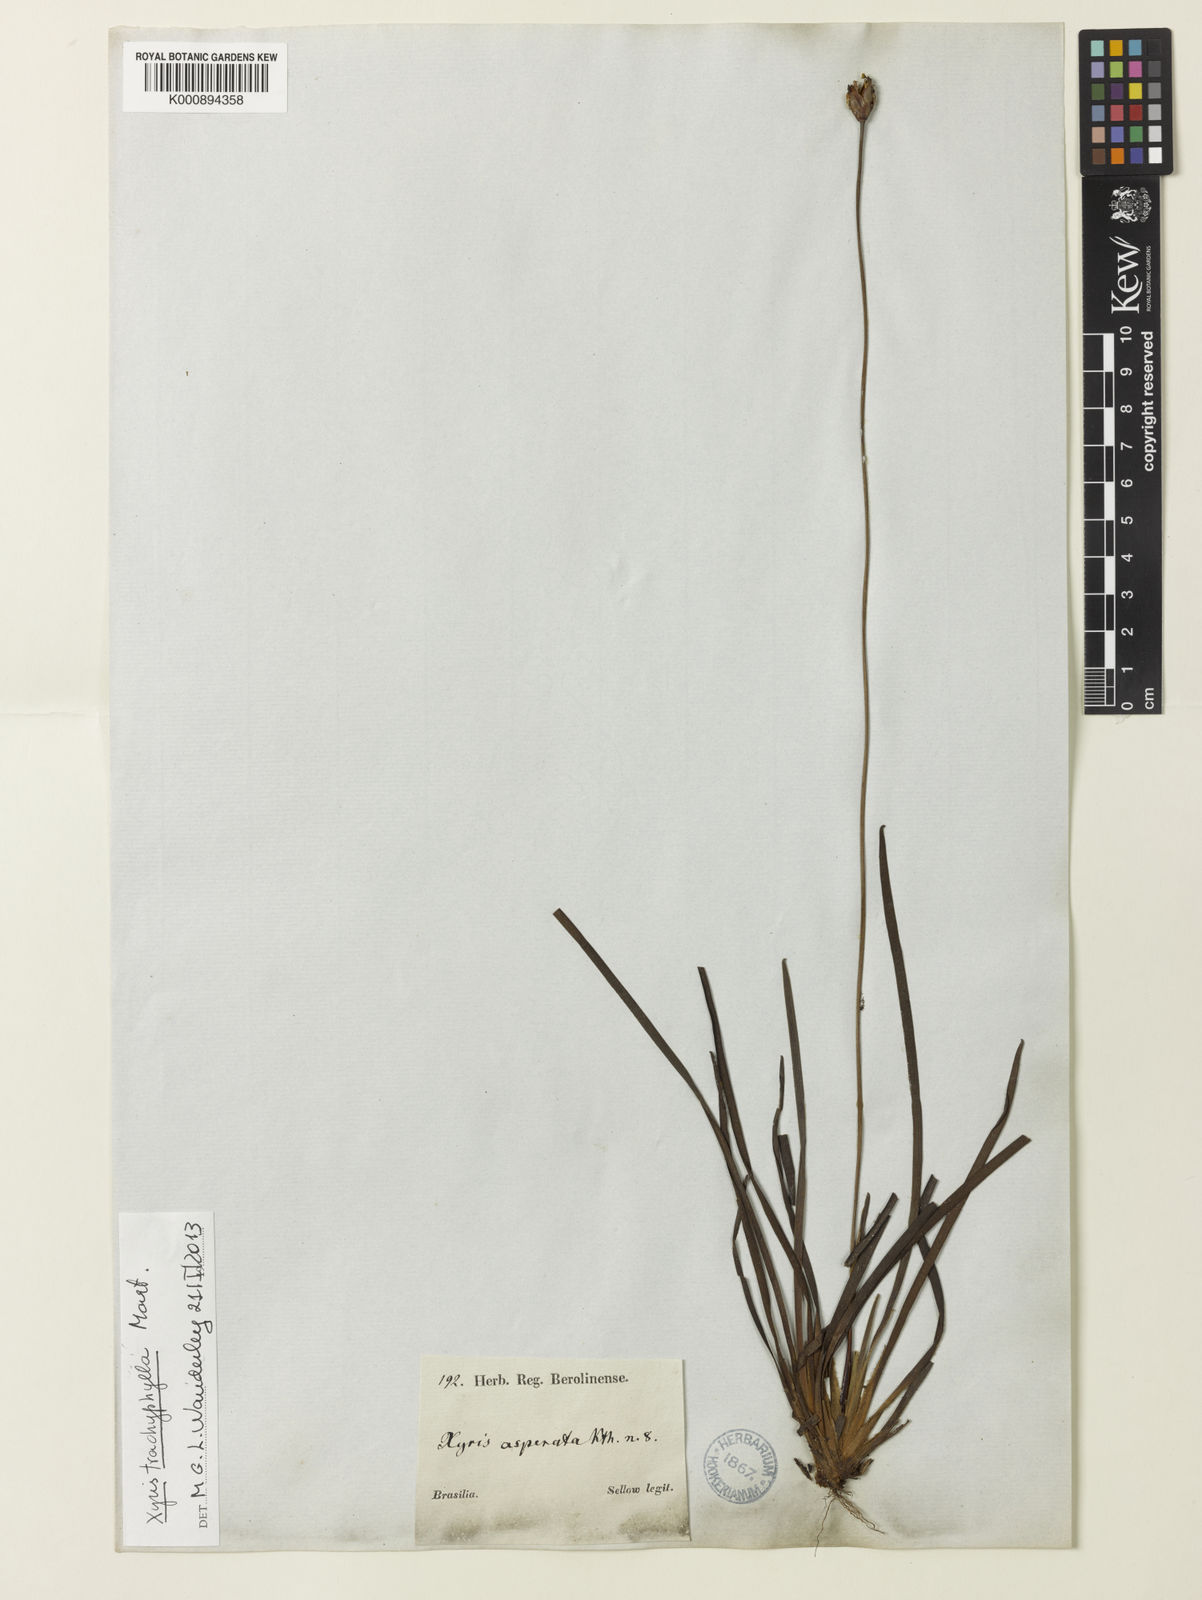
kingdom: Plantae
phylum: Tracheophyta
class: Liliopsida
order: Poales
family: Xyridaceae
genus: Xyris
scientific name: Xyris trachyphylla
